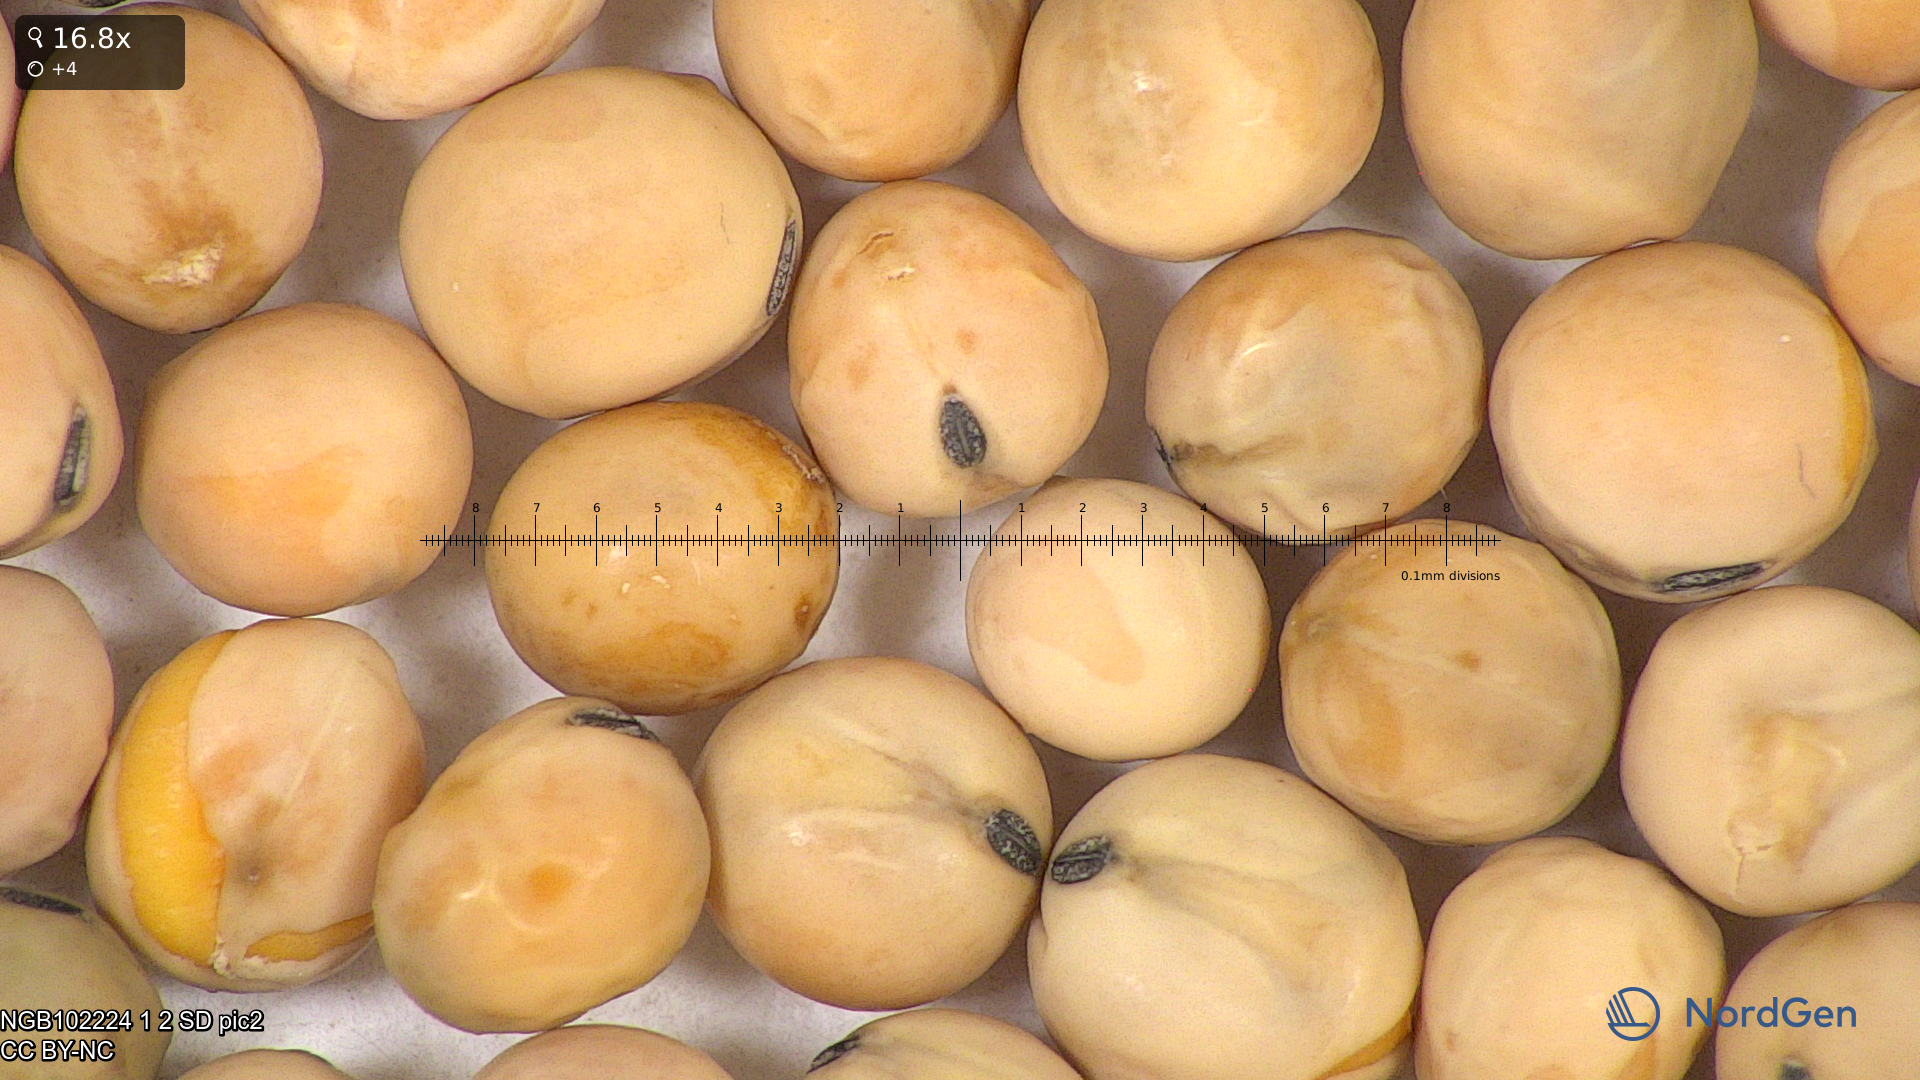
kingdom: Plantae
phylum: Tracheophyta
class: Magnoliopsida
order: Fabales
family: Fabaceae
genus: Lathyrus
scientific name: Lathyrus oleraceus
